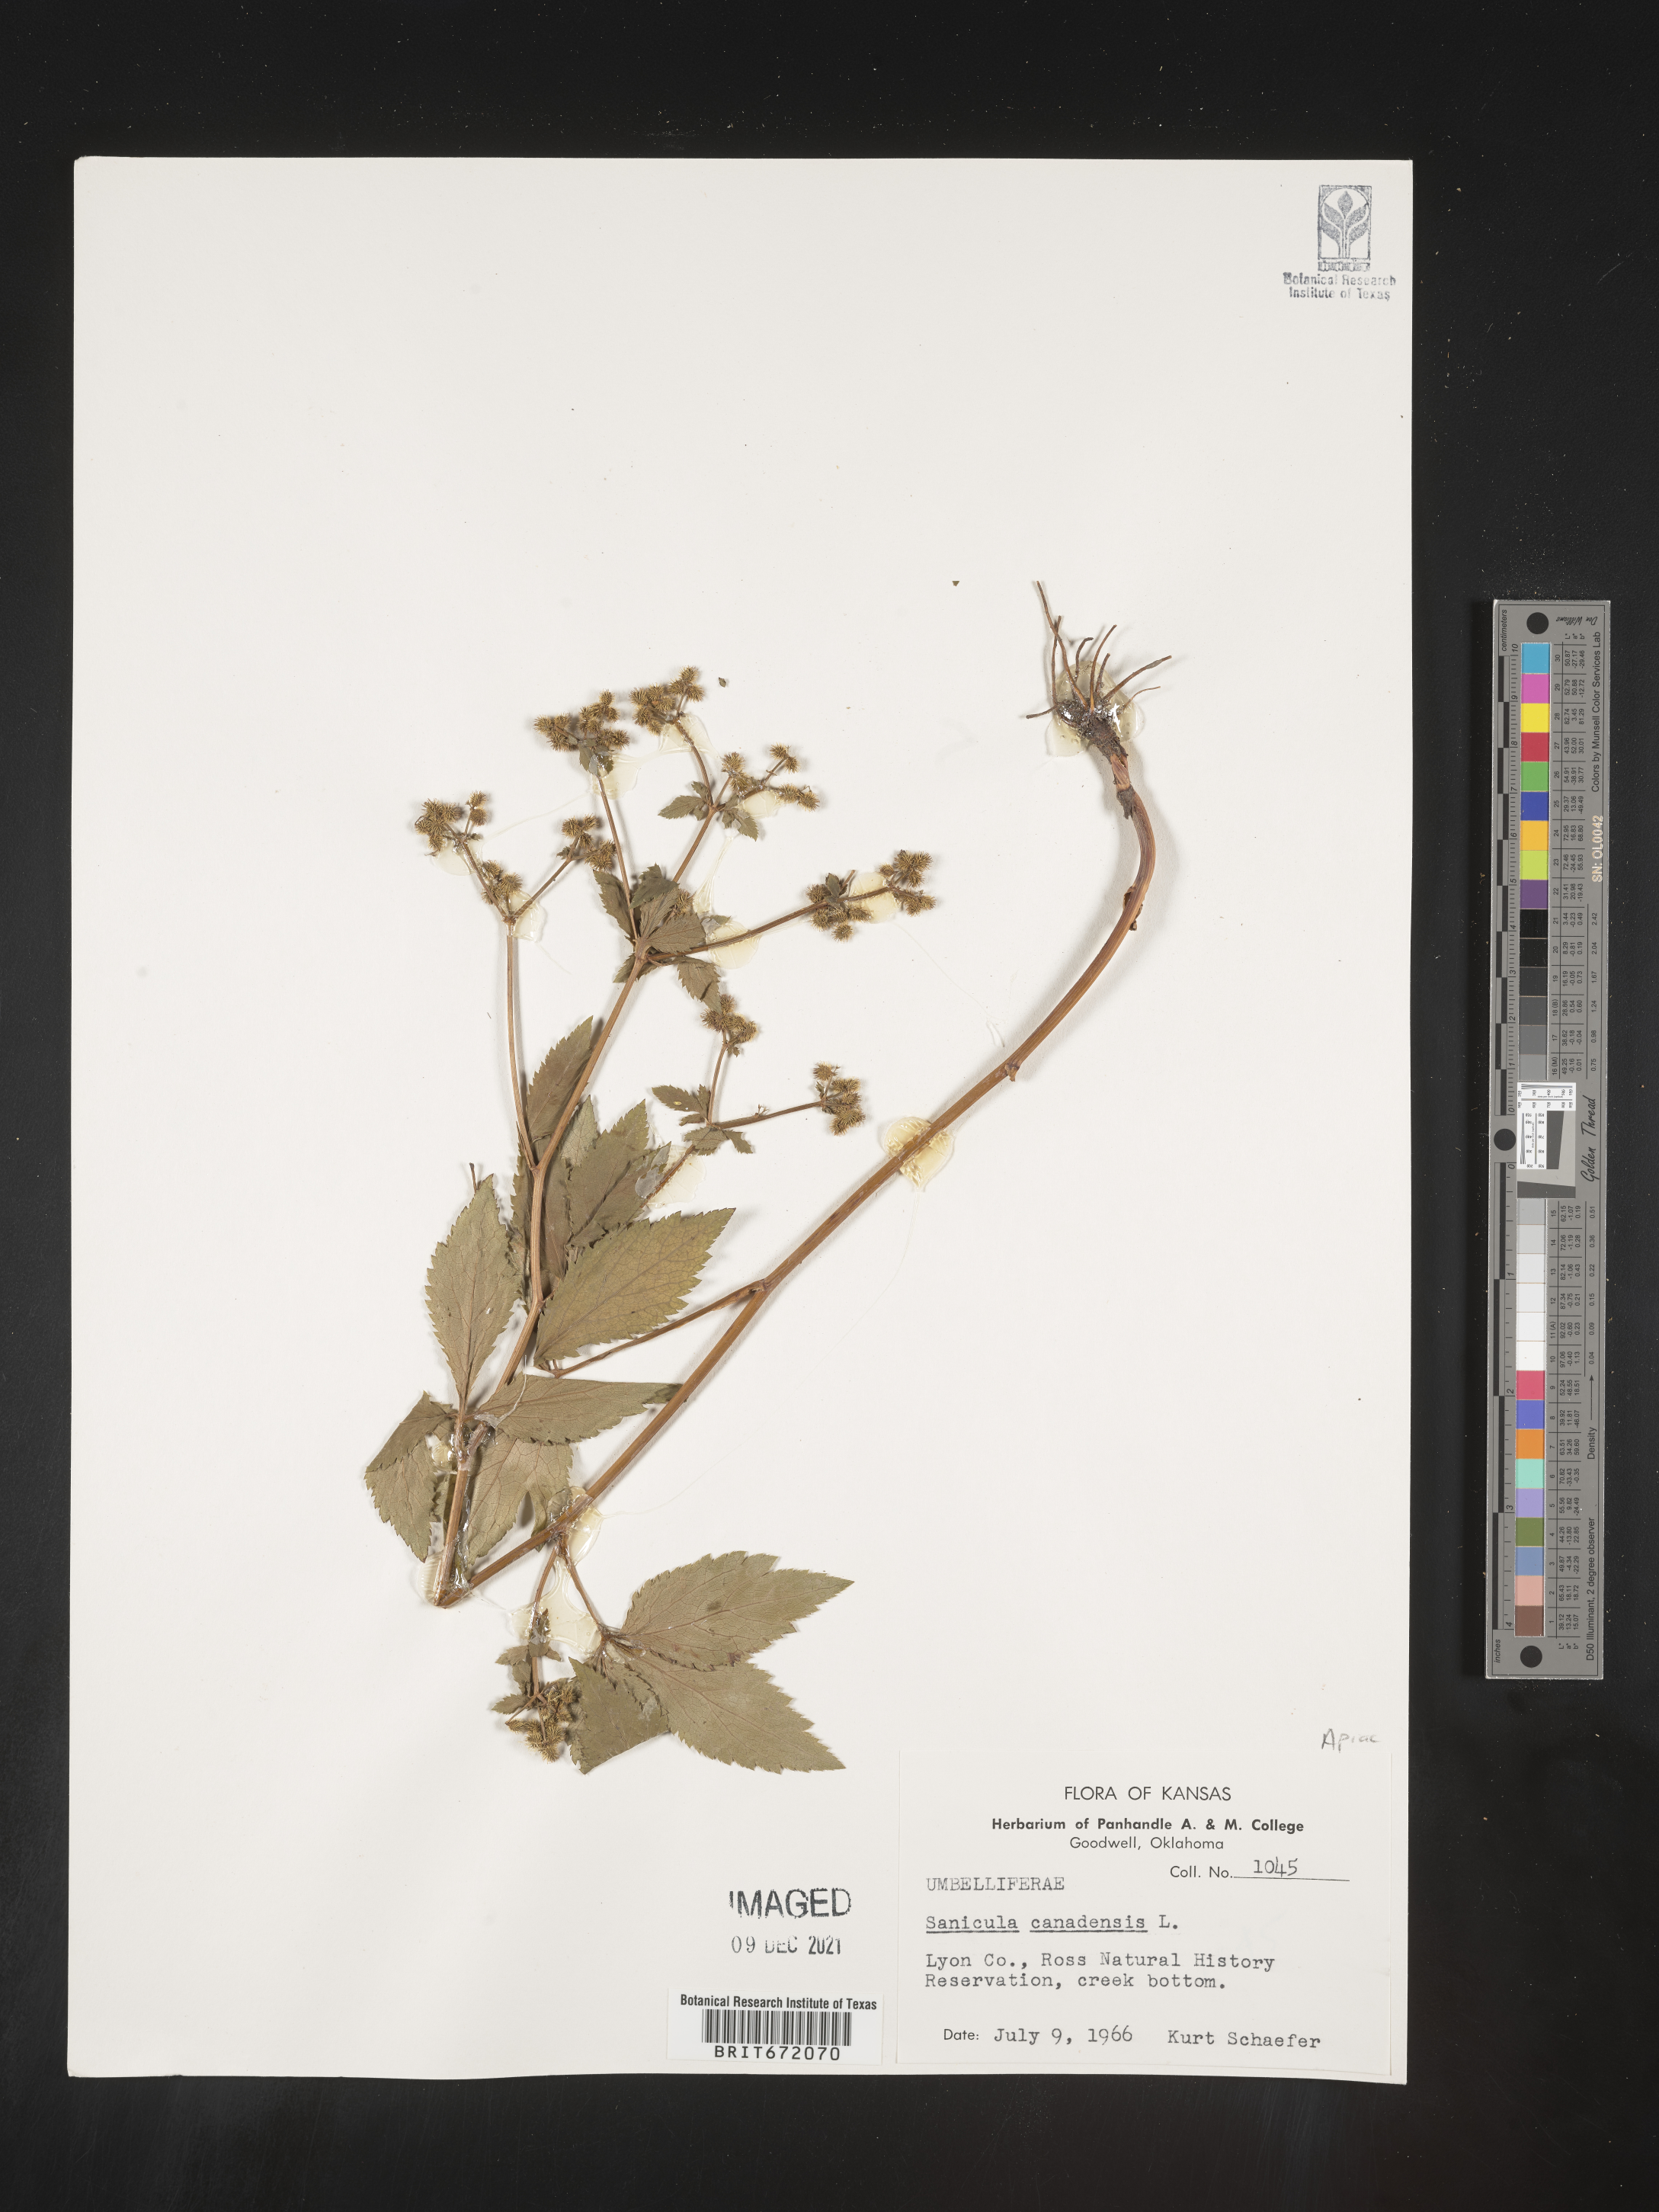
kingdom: Plantae
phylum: Tracheophyta
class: Magnoliopsida
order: Apiales
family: Apiaceae
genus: Sanicula
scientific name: Sanicula canadensis
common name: Canada sanicle
